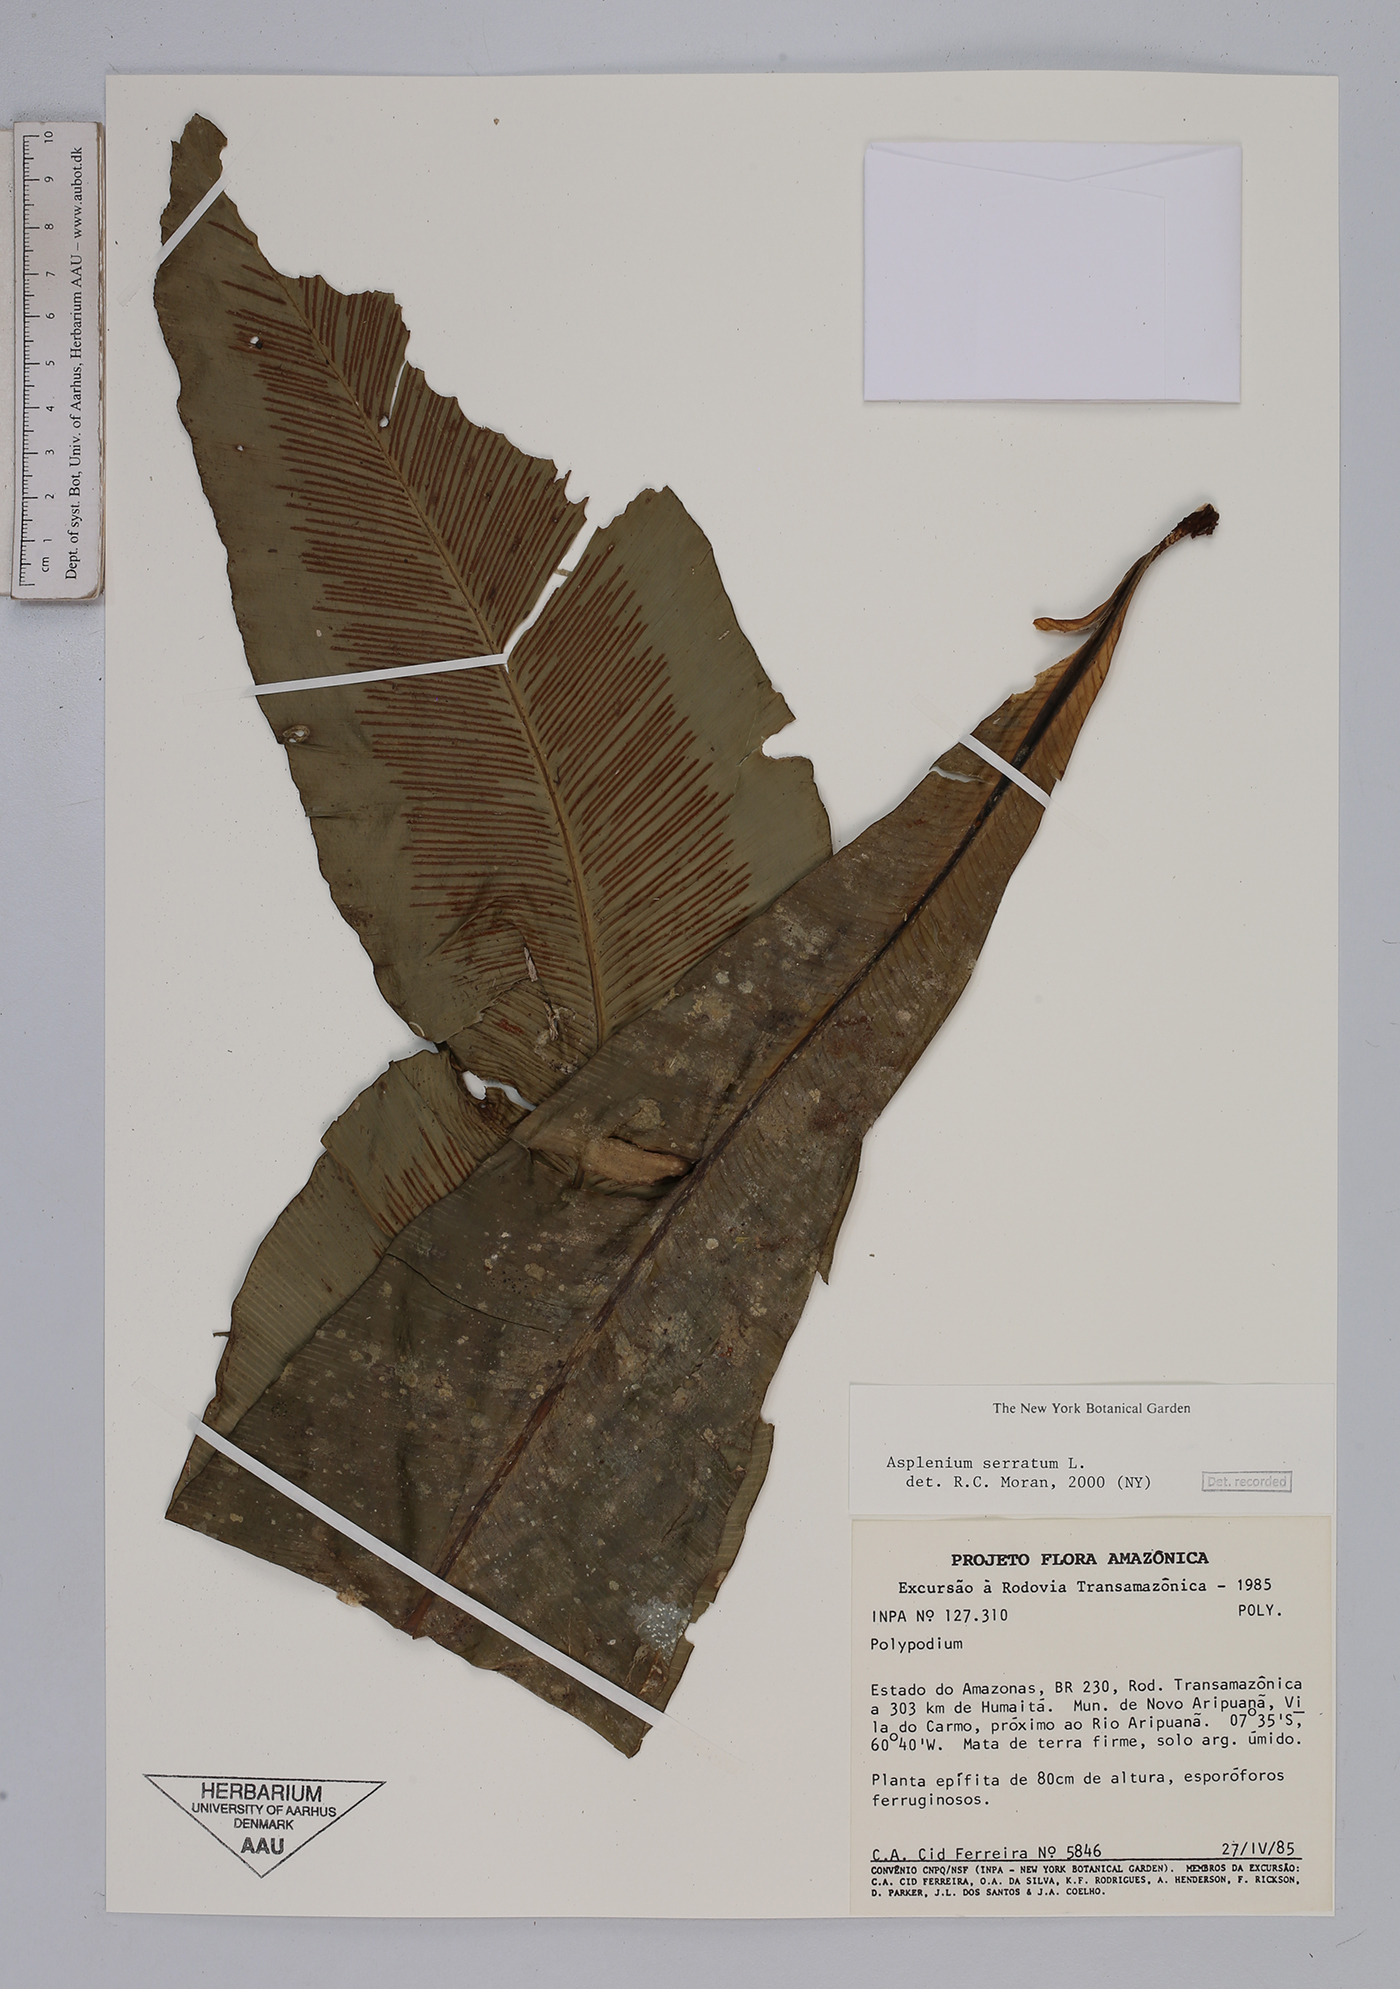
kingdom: Plantae
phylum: Tracheophyta
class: Polypodiopsida
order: Polypodiales
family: Aspleniaceae
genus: Asplenium
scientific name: Asplenium serratum
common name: Wild birdnest fern
